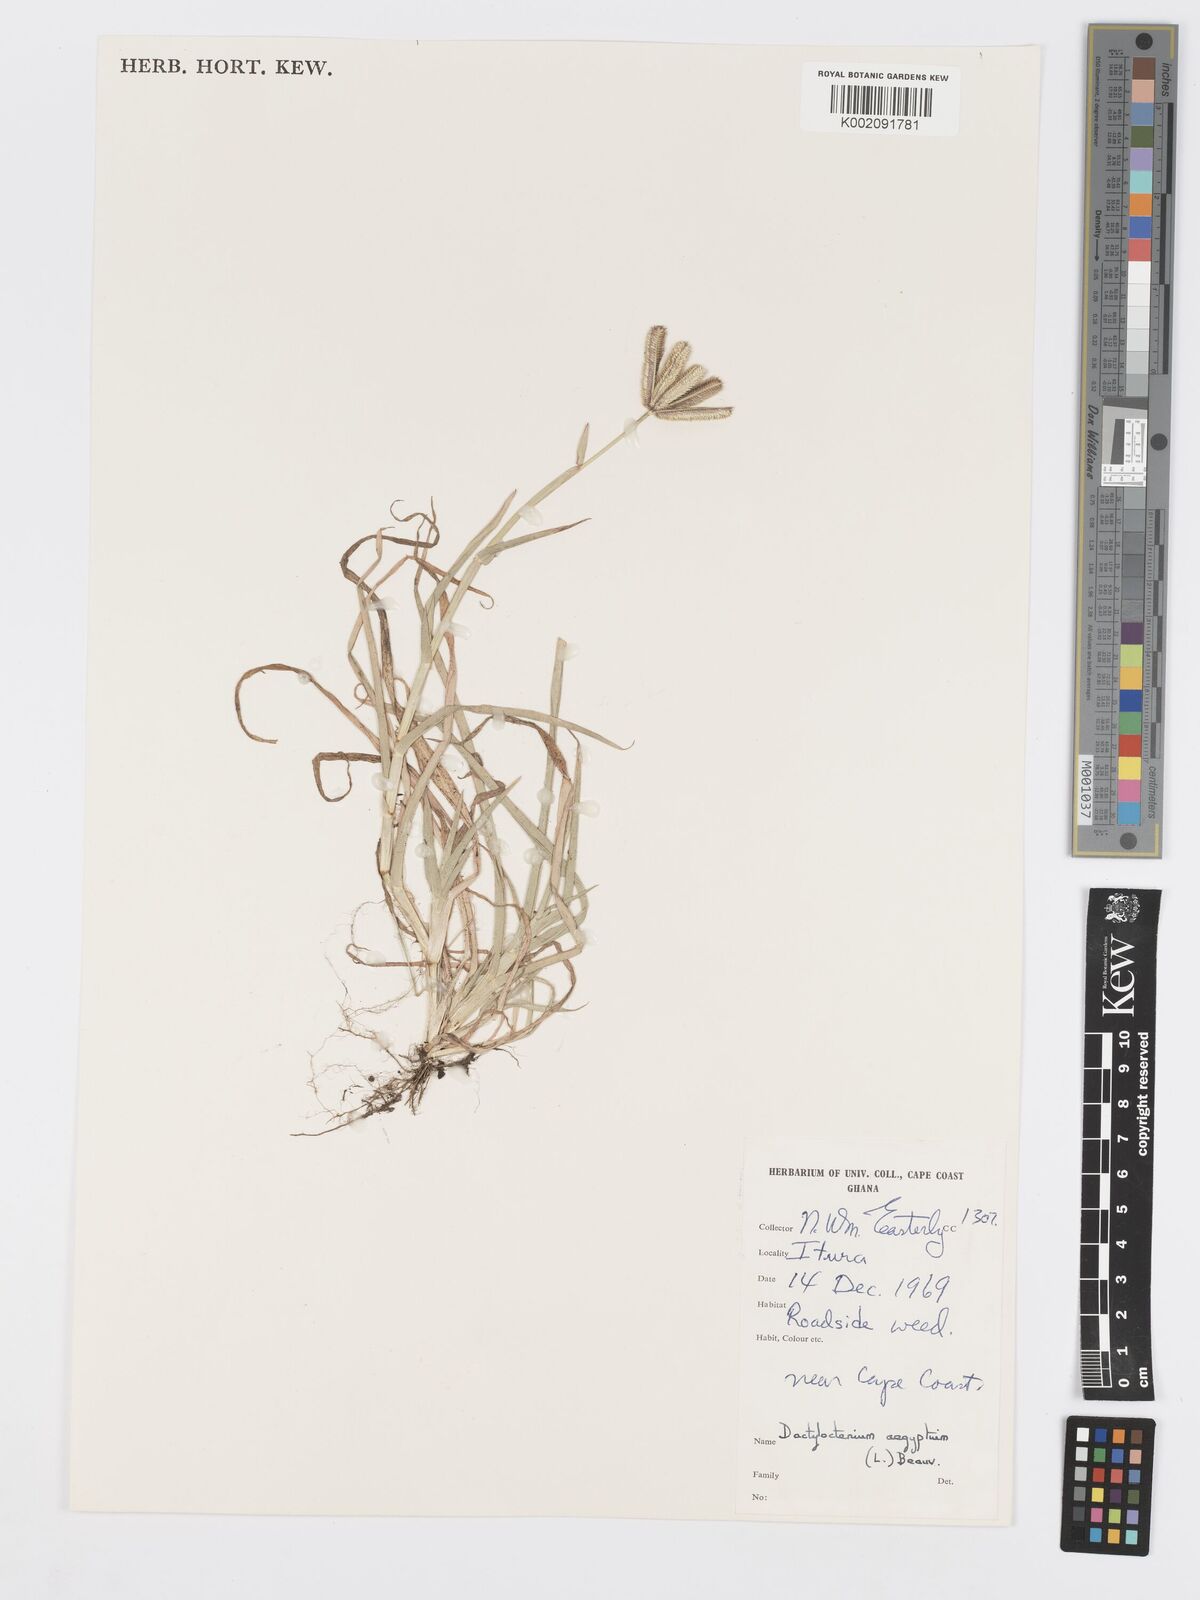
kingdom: Plantae
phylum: Tracheophyta
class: Liliopsida
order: Poales
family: Poaceae
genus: Dactyloctenium
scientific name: Dactyloctenium aegyptium
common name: Egyptian grass
